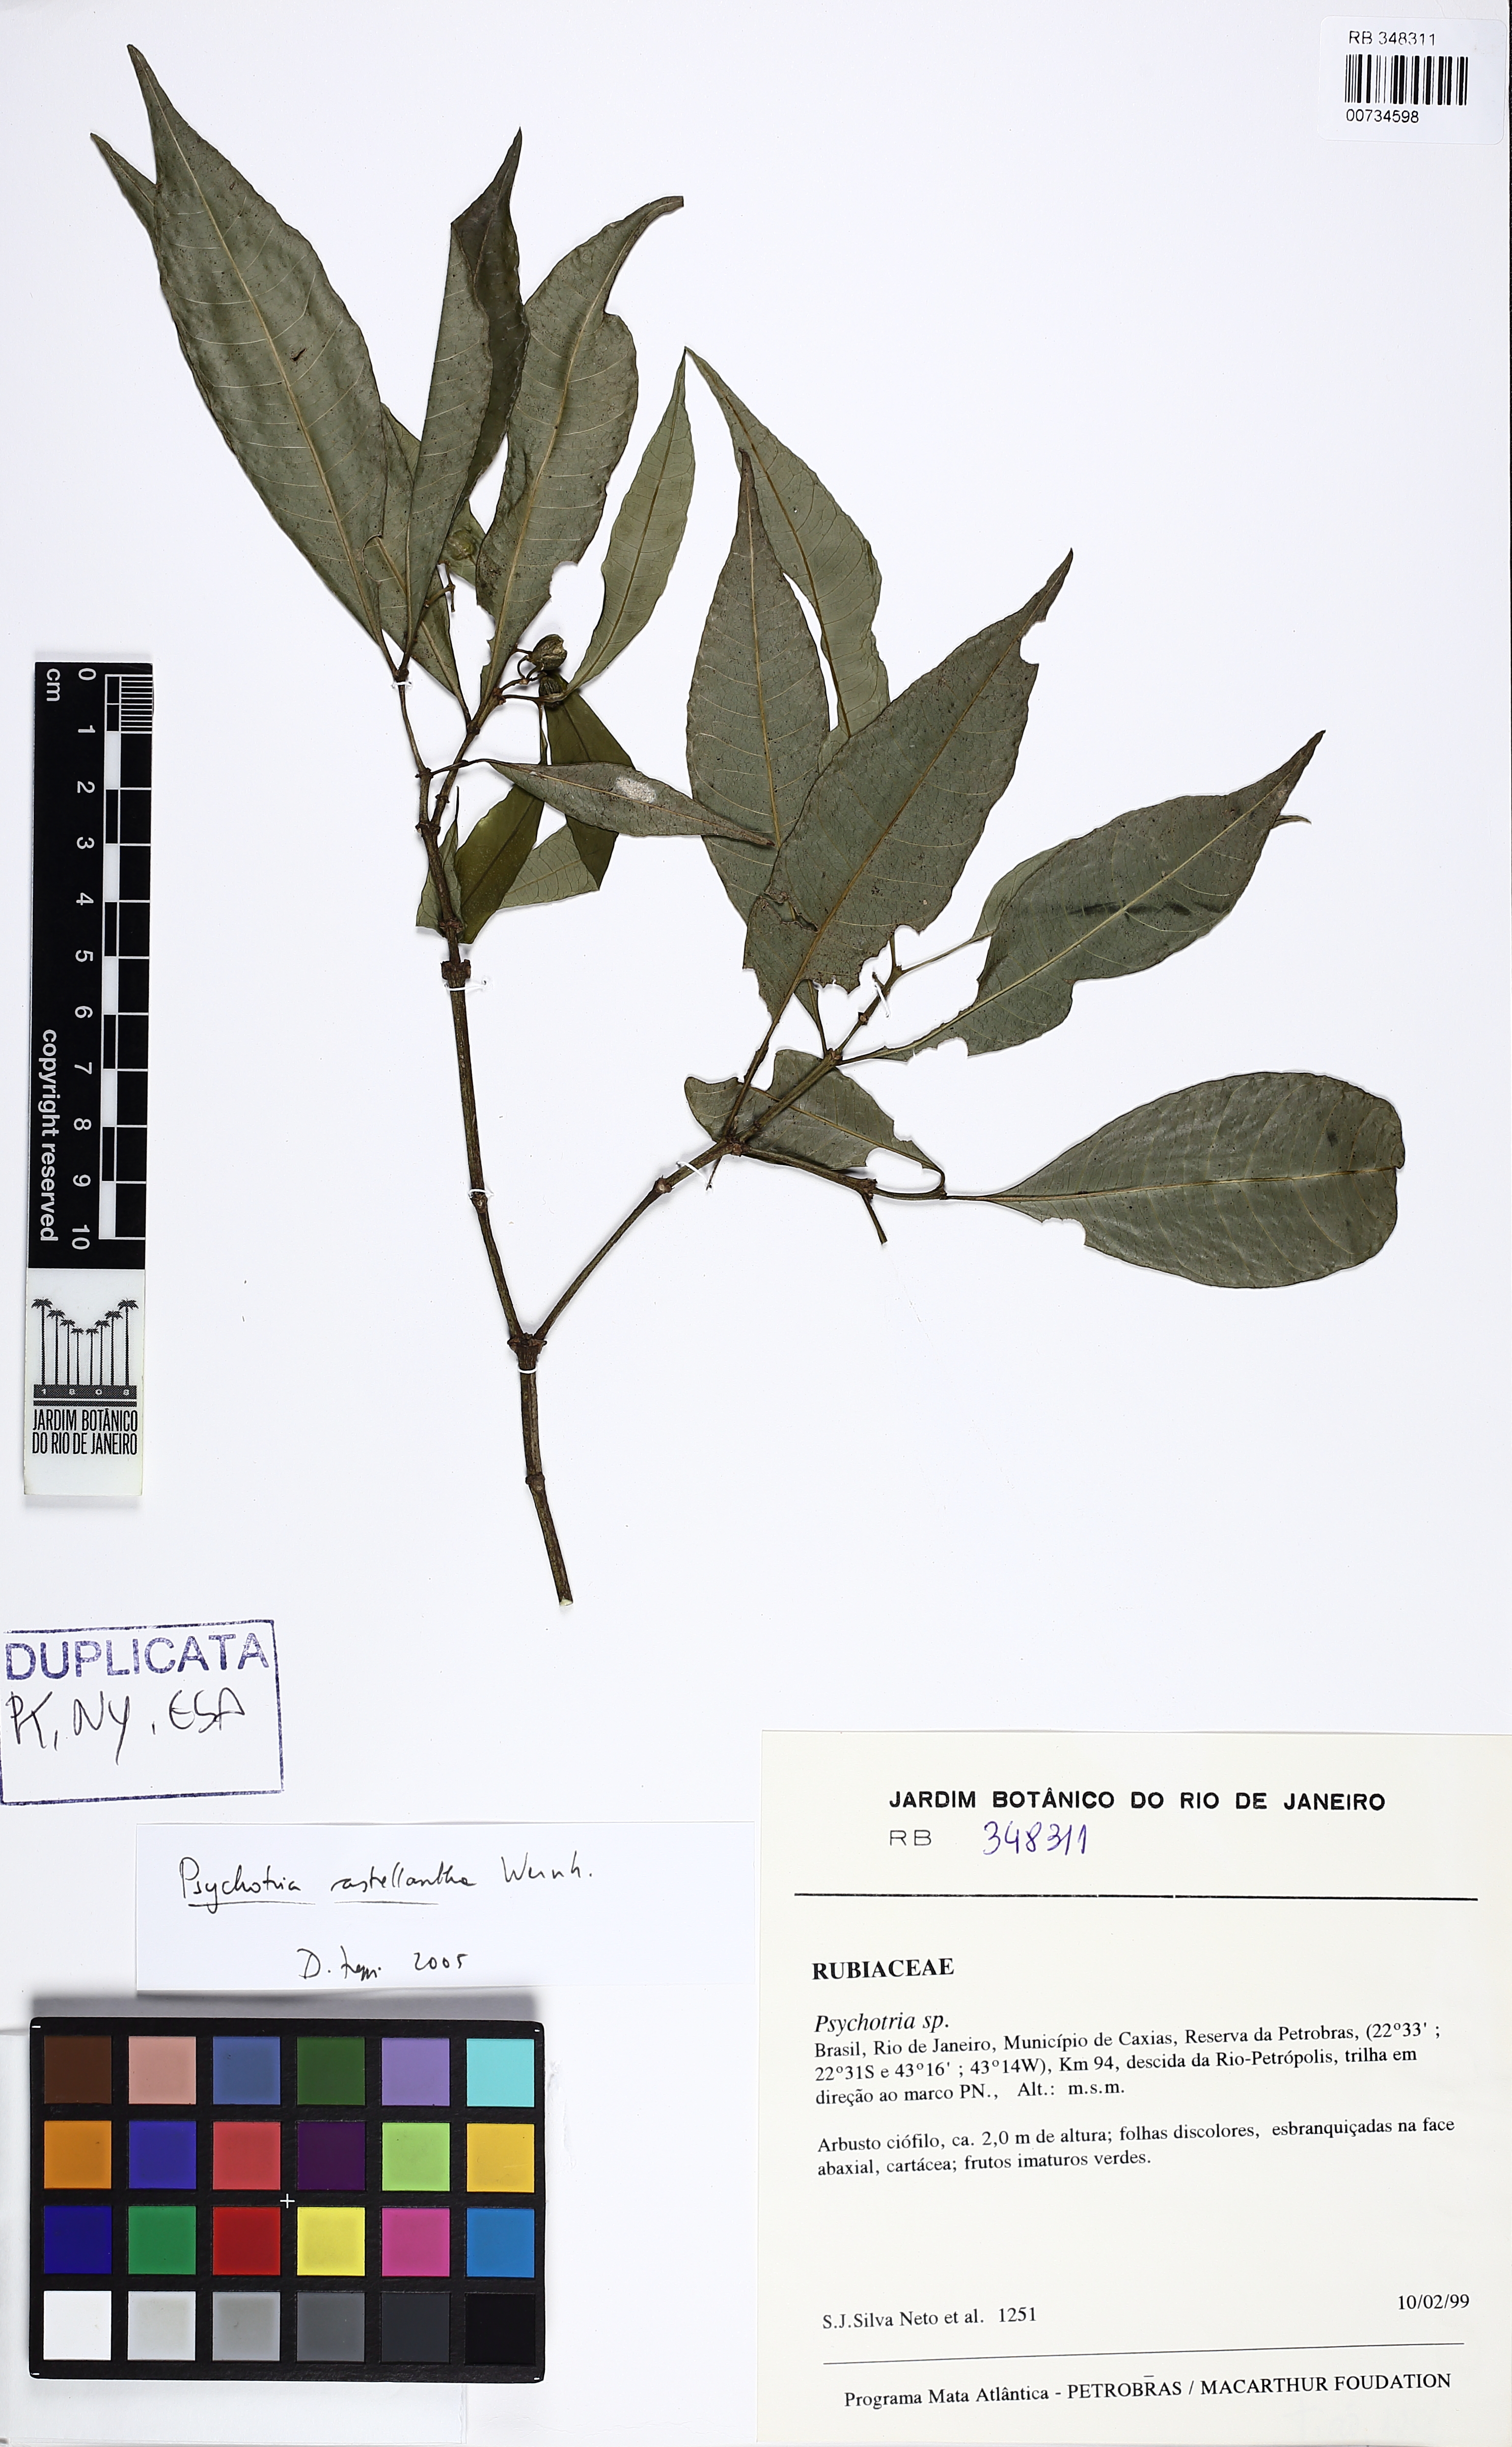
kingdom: Plantae
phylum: Tracheophyta
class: Magnoliopsida
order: Gentianales
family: Rubiaceae
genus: Eumachia
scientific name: Eumachia astrellantha
